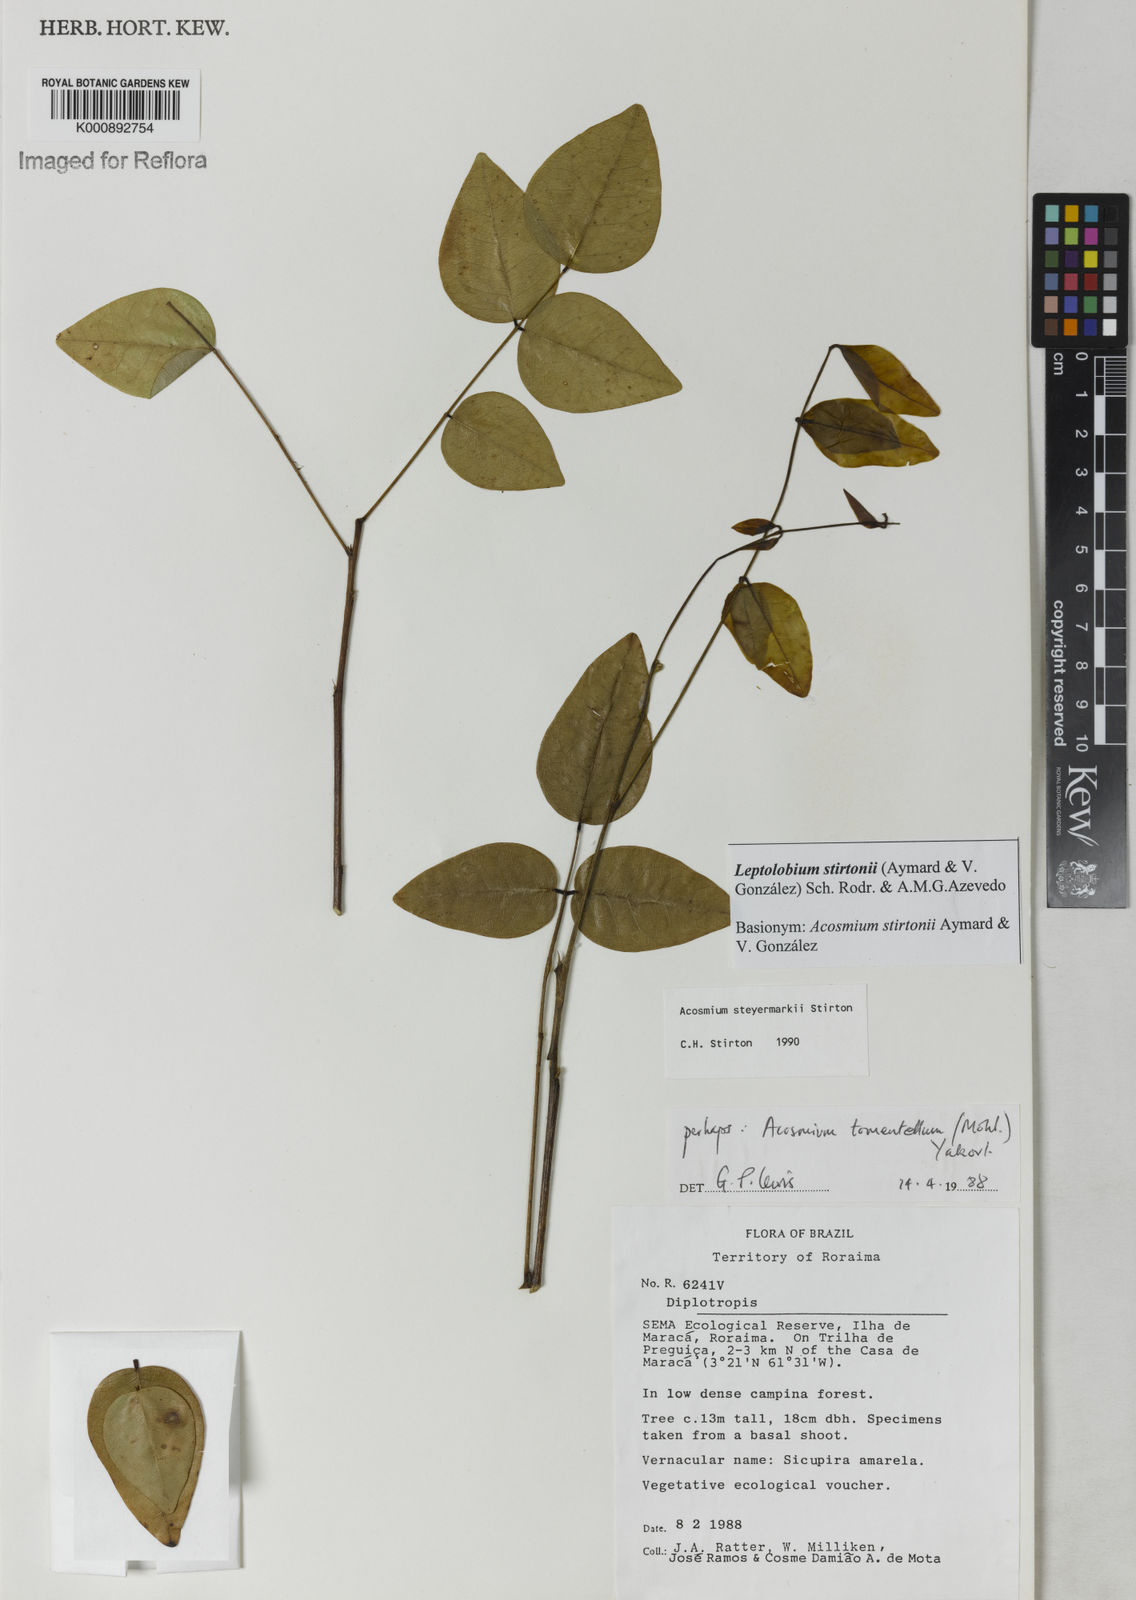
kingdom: Plantae
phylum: Tracheophyta
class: Magnoliopsida
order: Fabales
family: Fabaceae
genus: Leptolobium
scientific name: Leptolobium
